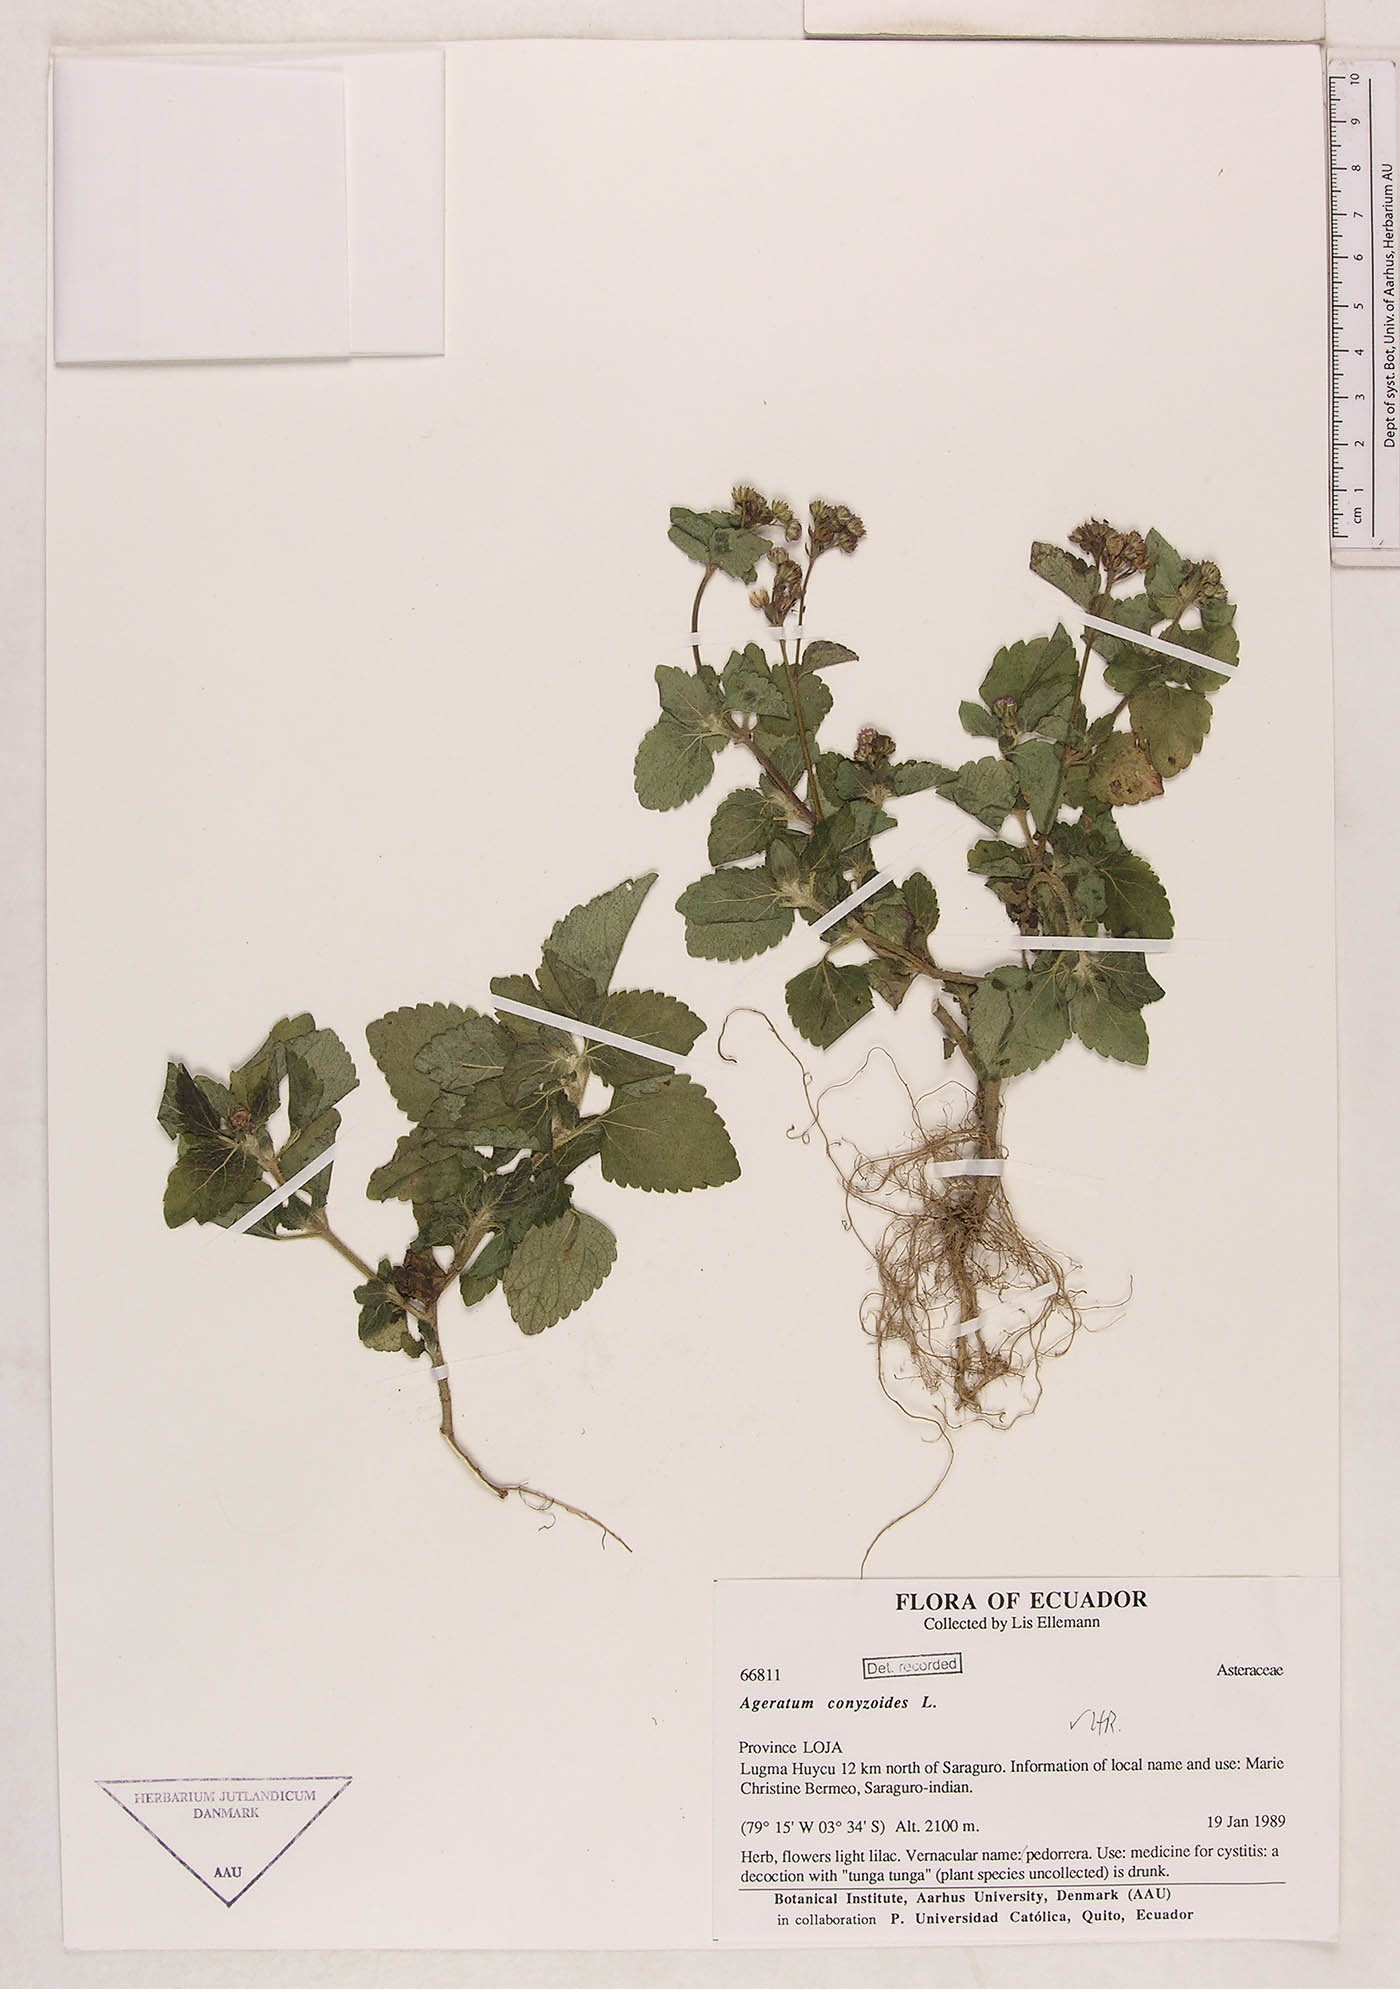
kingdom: Plantae
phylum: Tracheophyta
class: Magnoliopsida
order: Asterales
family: Asteraceae
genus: Ageratum
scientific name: Ageratum conyzoides
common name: Tropical whiteweed
